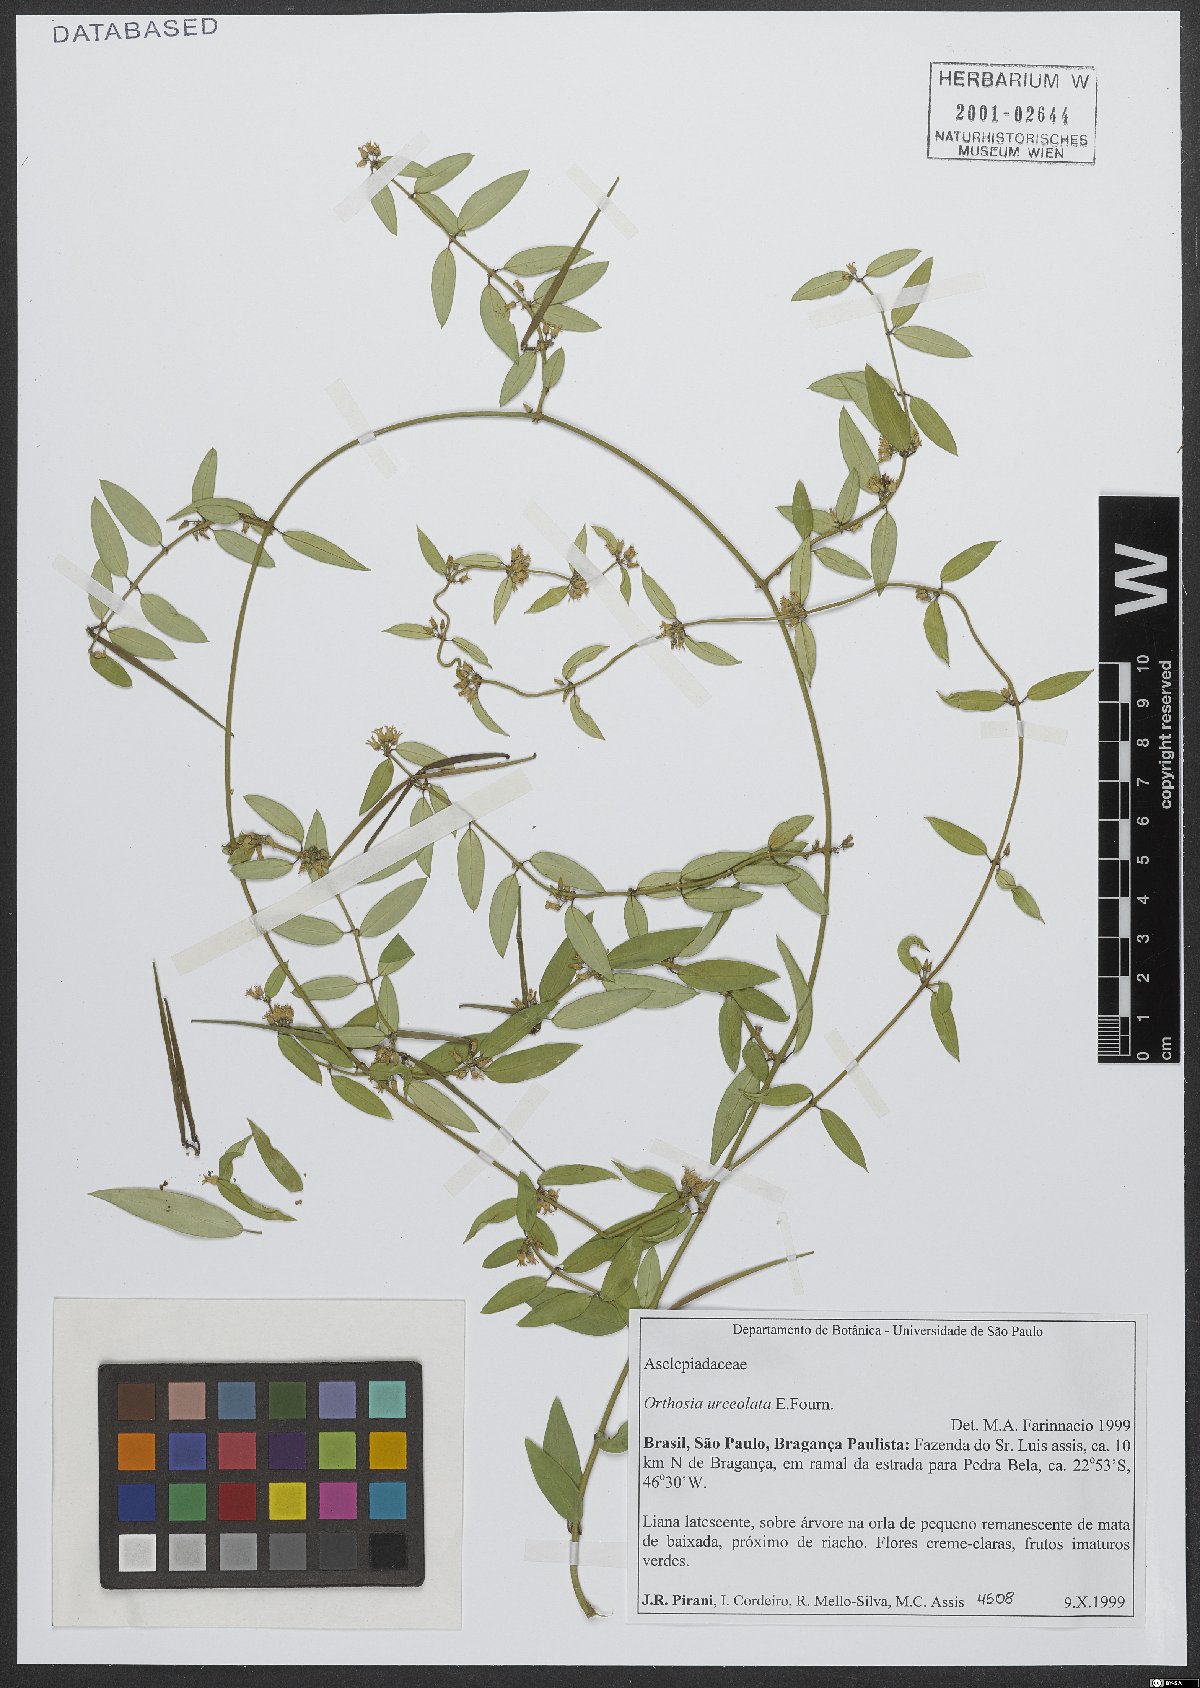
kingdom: Plantae
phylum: Tracheophyta
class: Magnoliopsida
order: Gentianales
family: Apocynaceae
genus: Orthosia
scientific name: Orthosia urceolata
